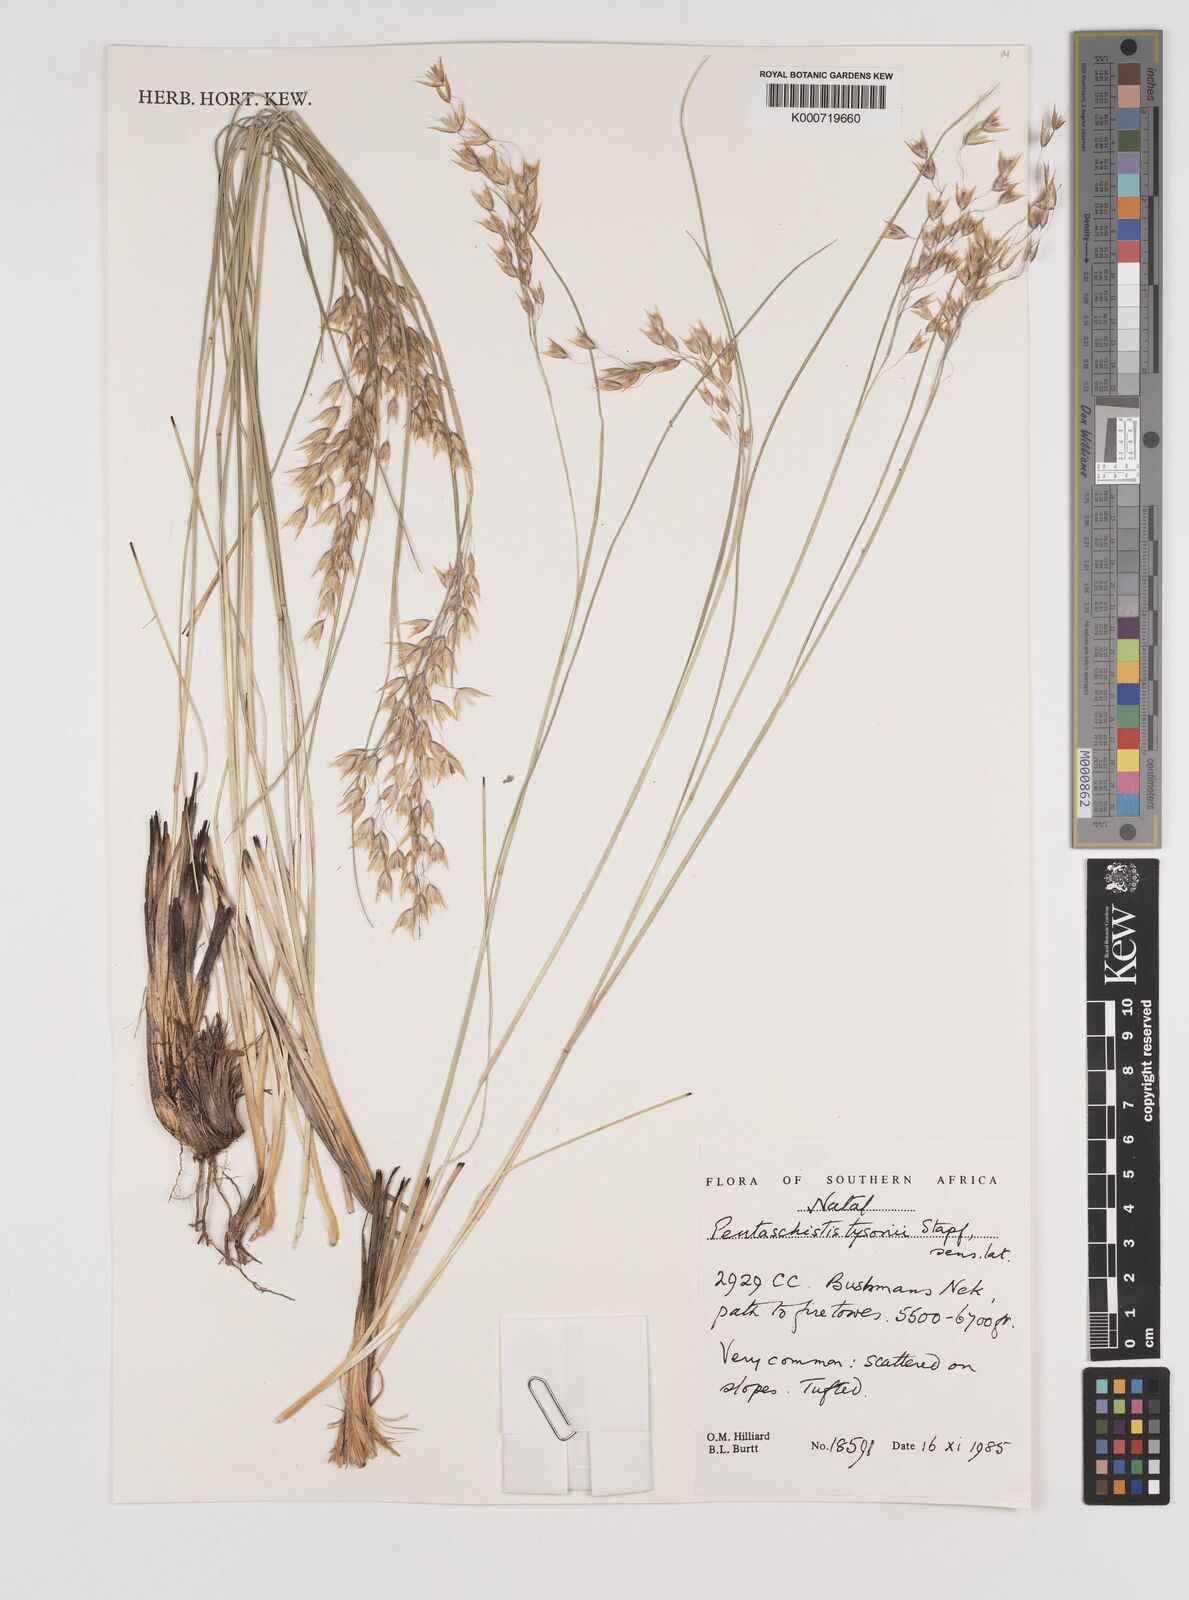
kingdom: Plantae
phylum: Tracheophyta
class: Liliopsida
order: Poales
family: Poaceae
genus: Pentameris
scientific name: Pentameris tysonii
